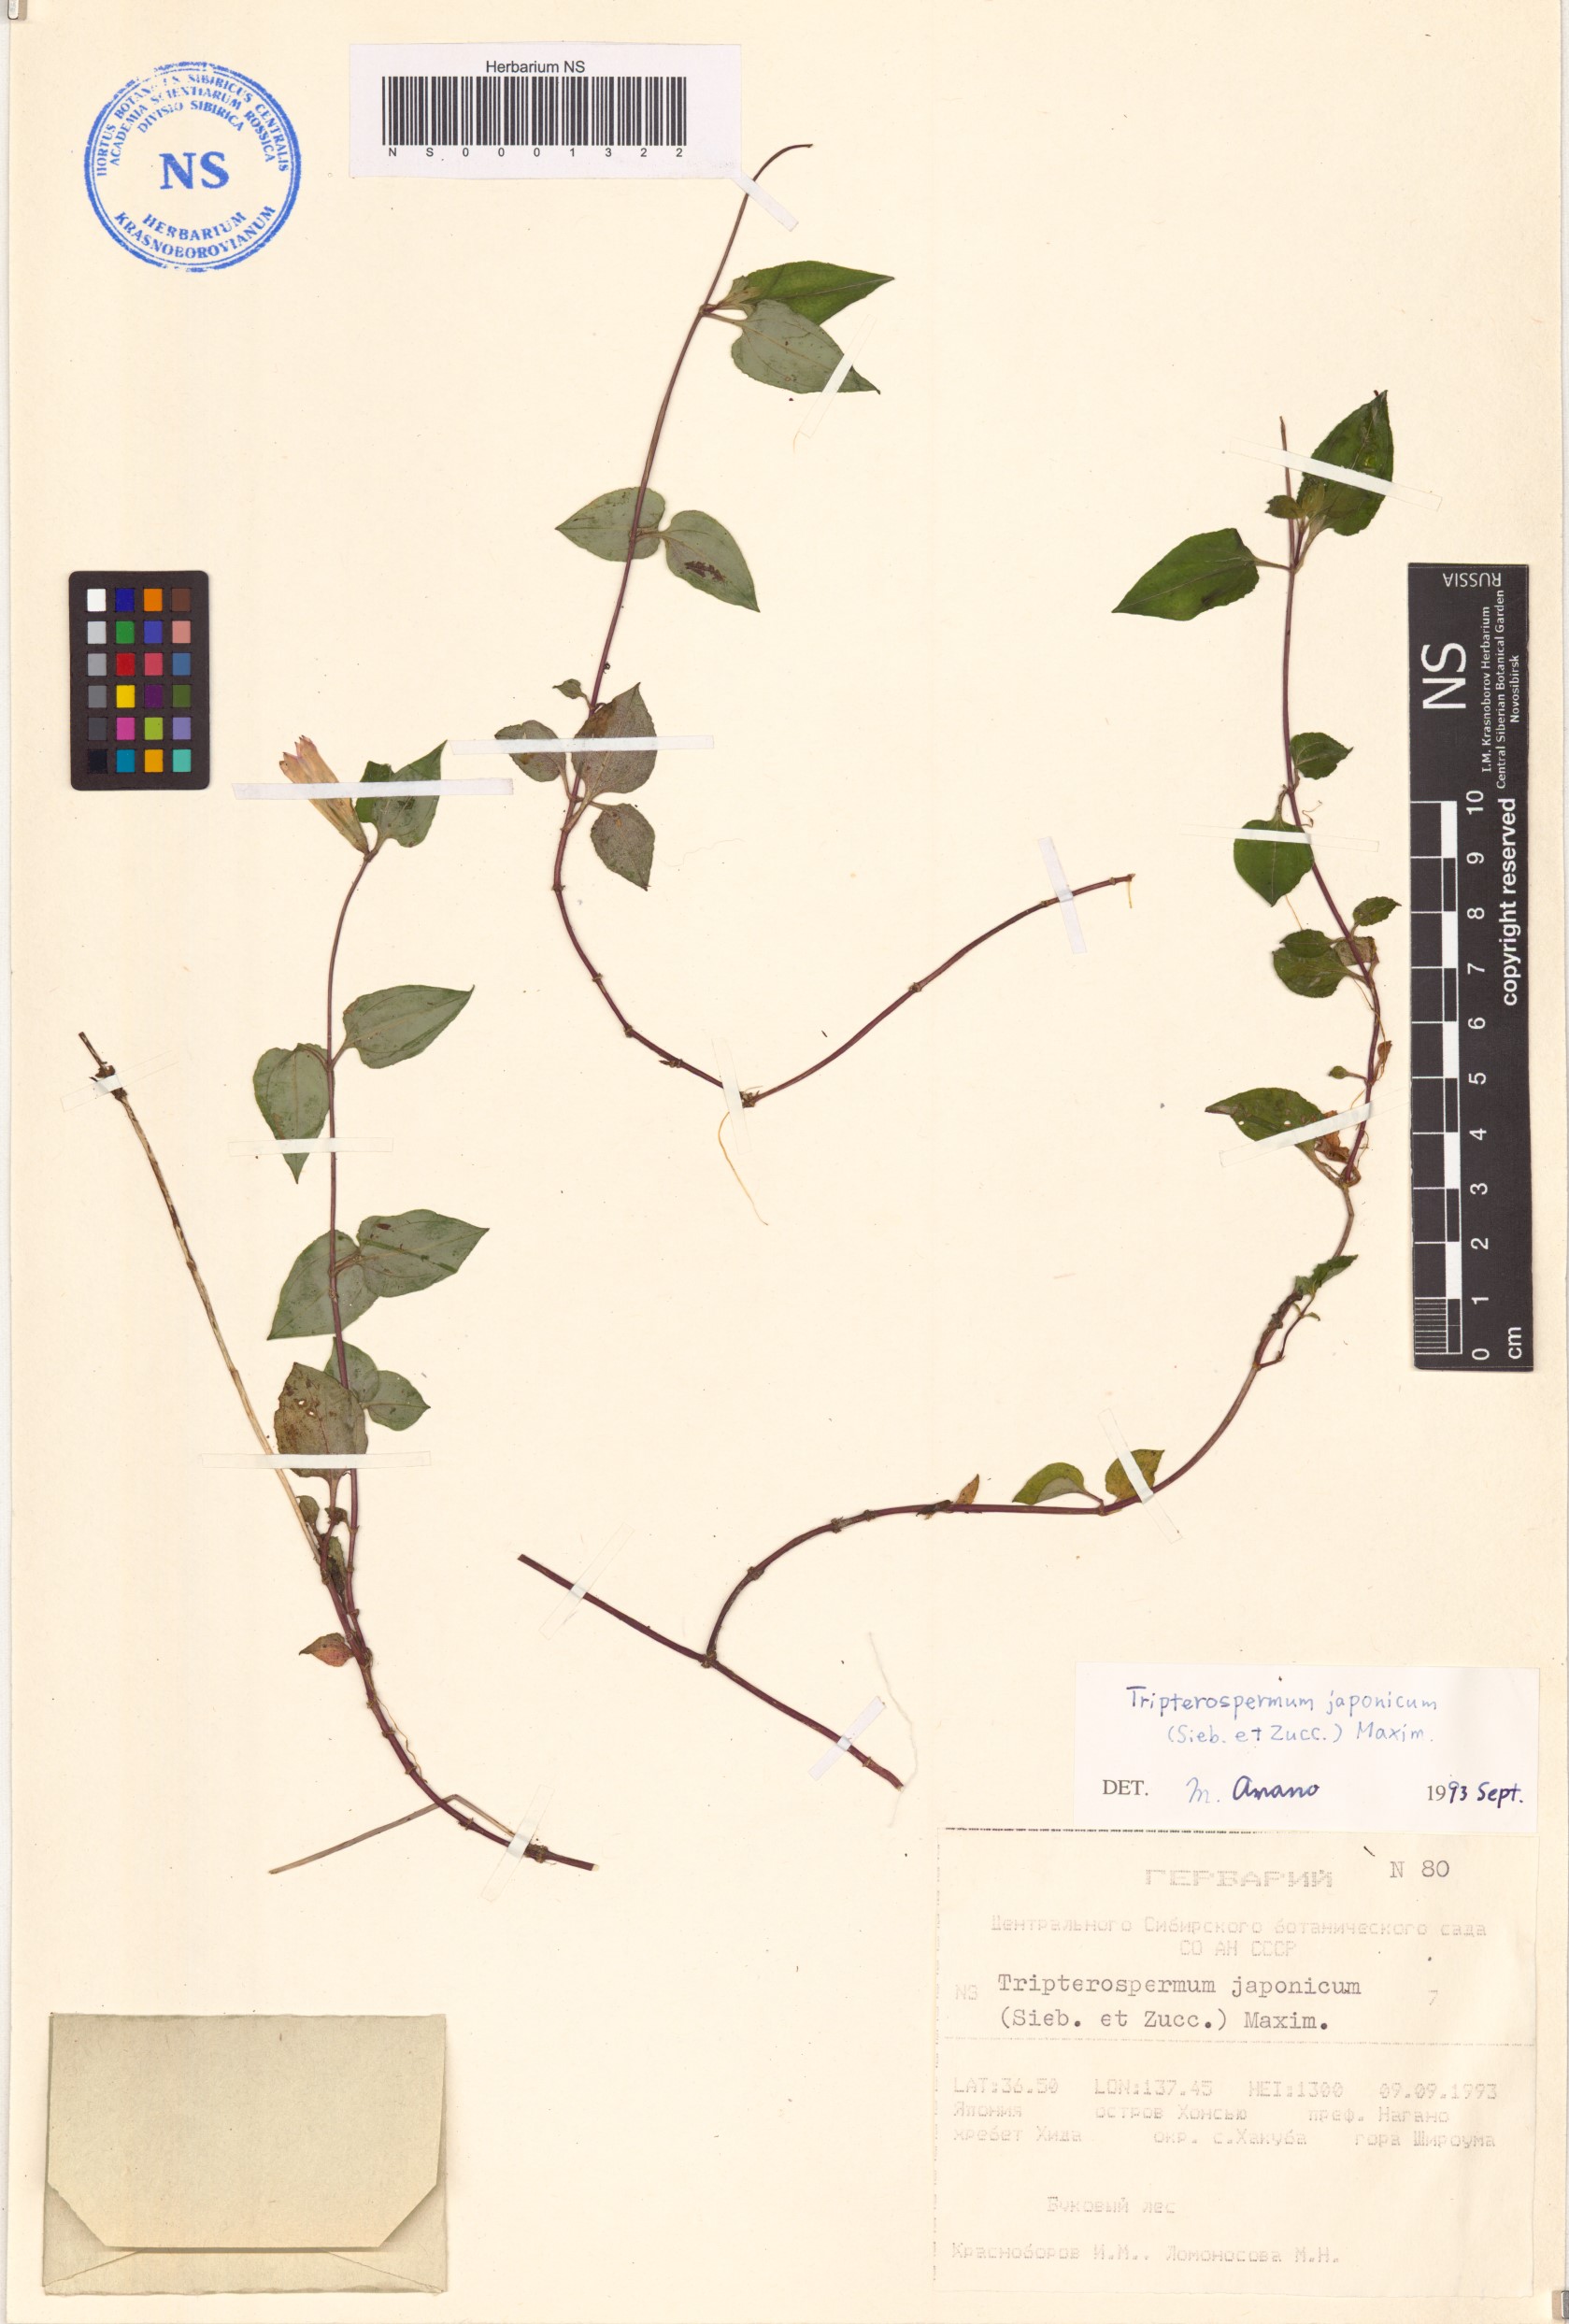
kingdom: Plantae
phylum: Tracheophyta
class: Magnoliopsida
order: Gentianales
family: Gentianaceae
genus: Tripterospermum
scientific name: Tripterospermum trinervium
